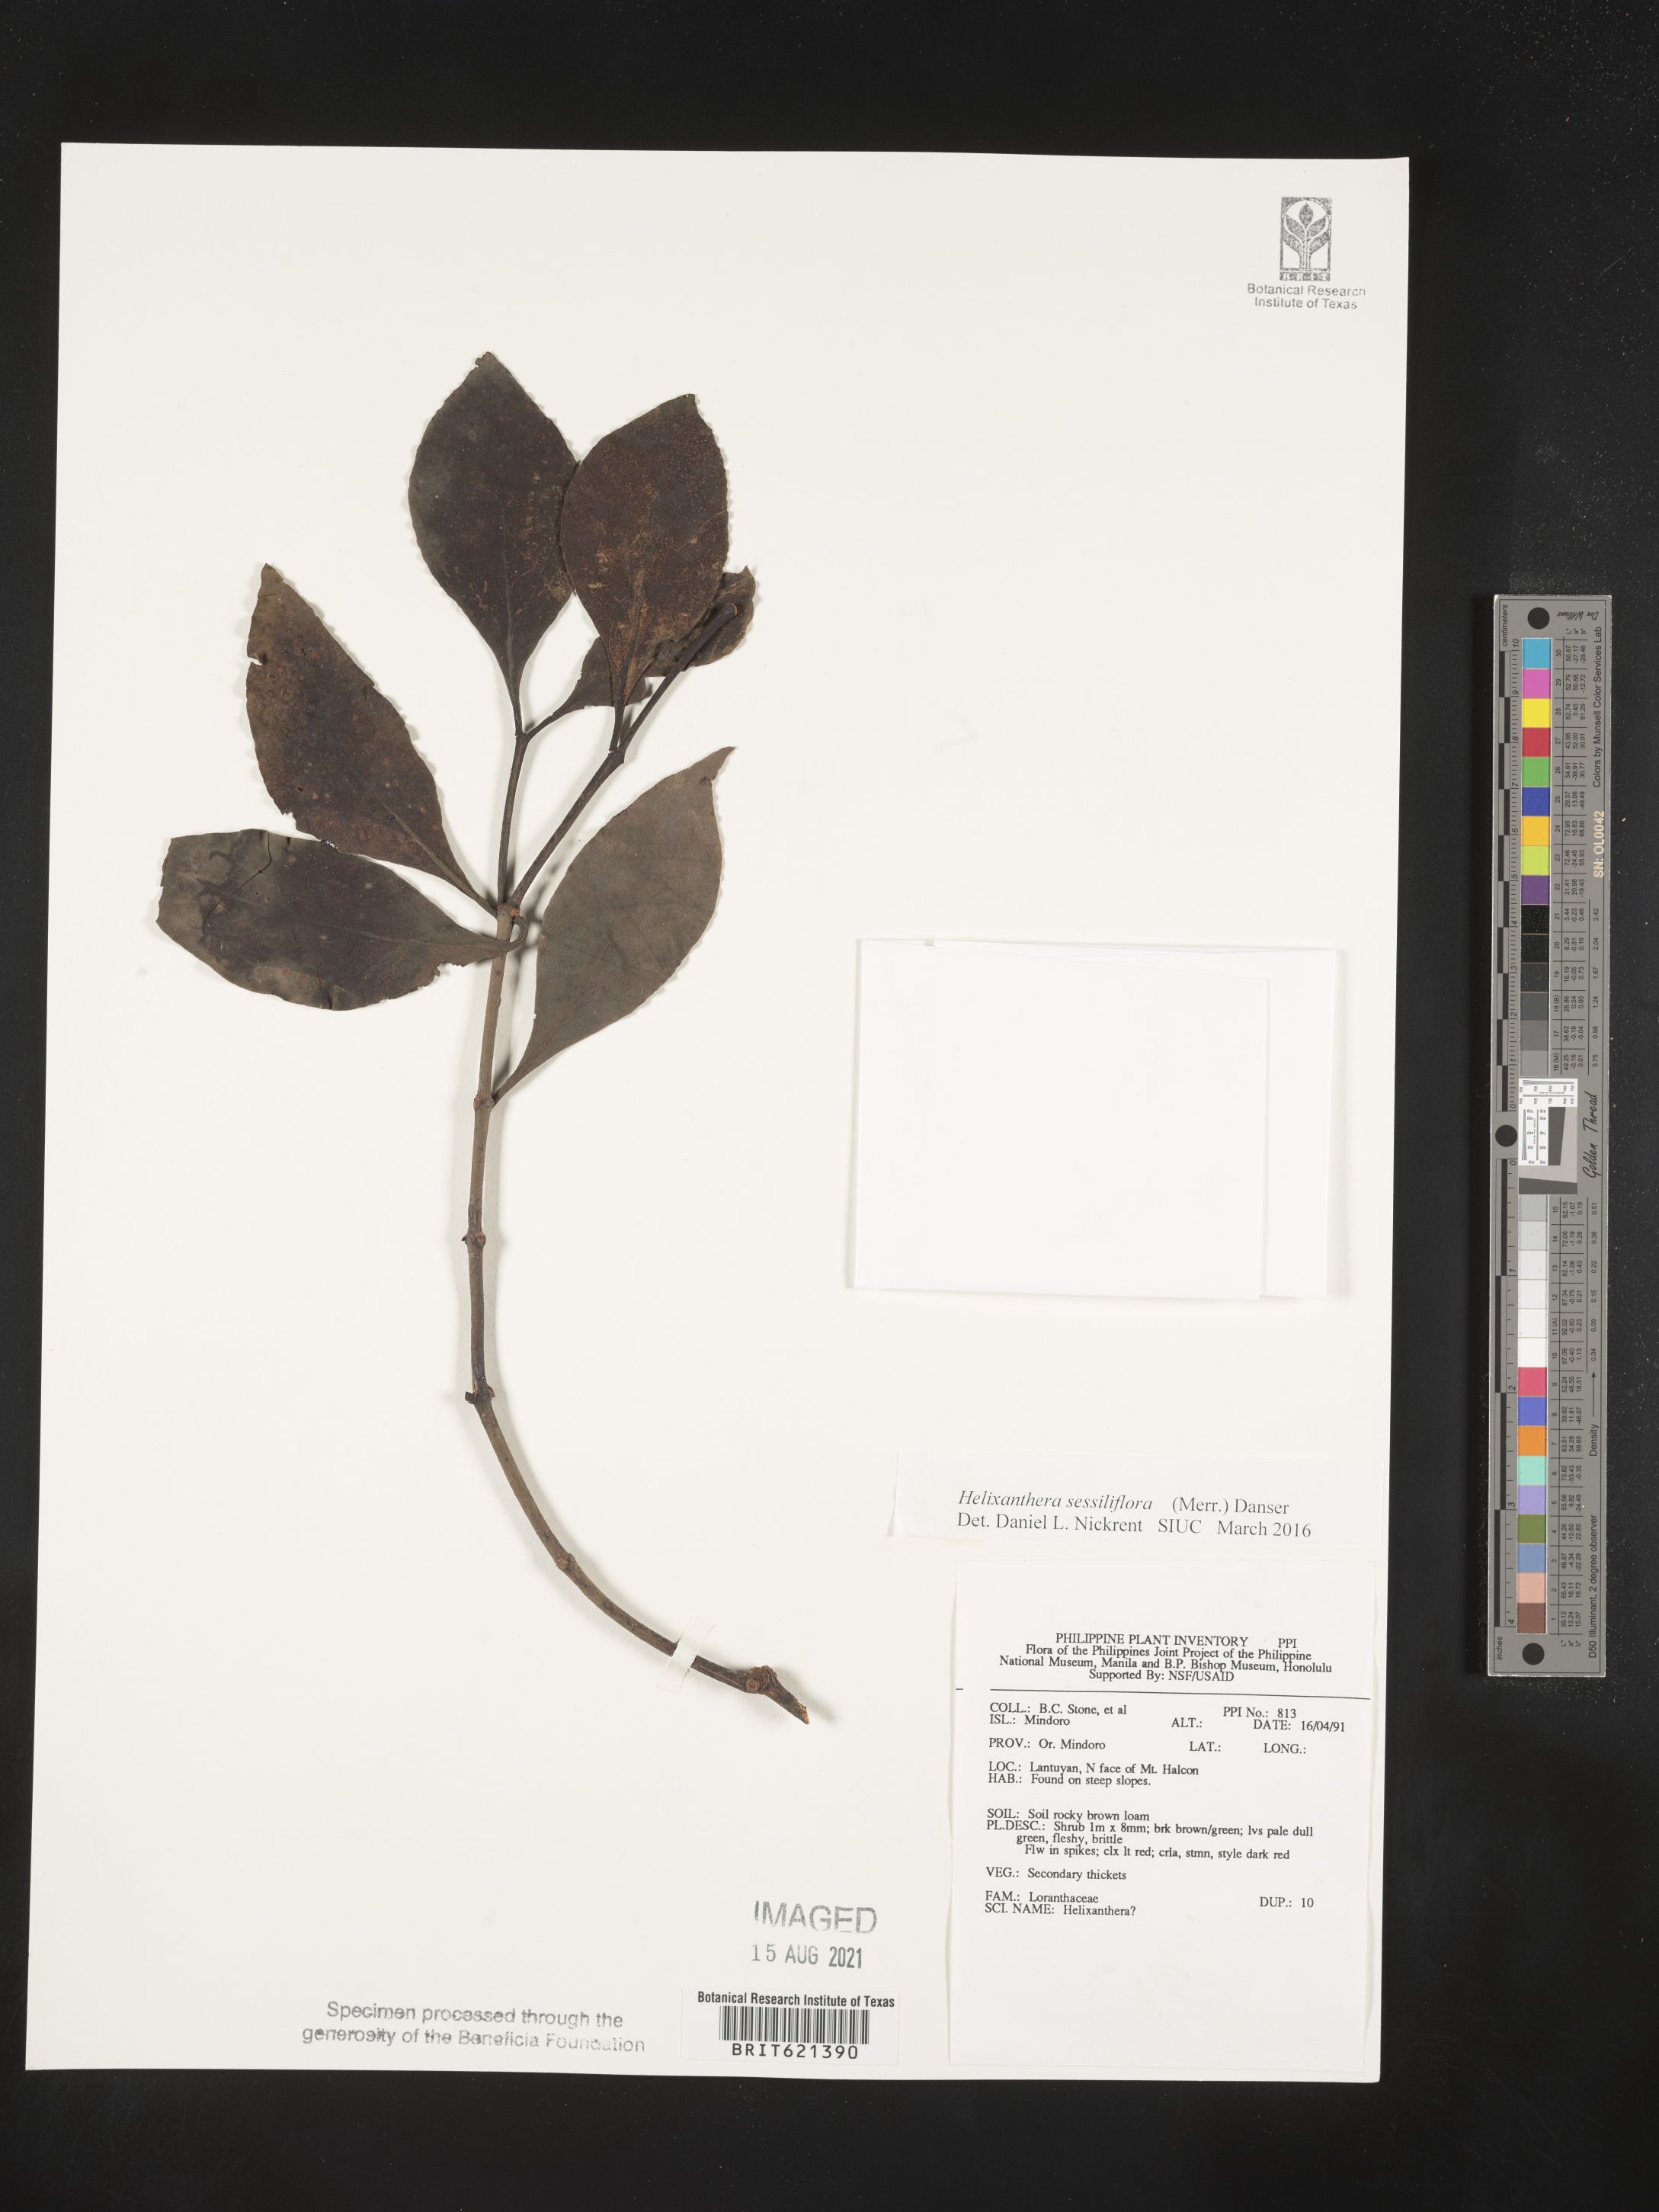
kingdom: Plantae
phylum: Tracheophyta
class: Magnoliopsida
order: Santalales
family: Loranthaceae
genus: Helixanthera
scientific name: Helixanthera sessiliflora
